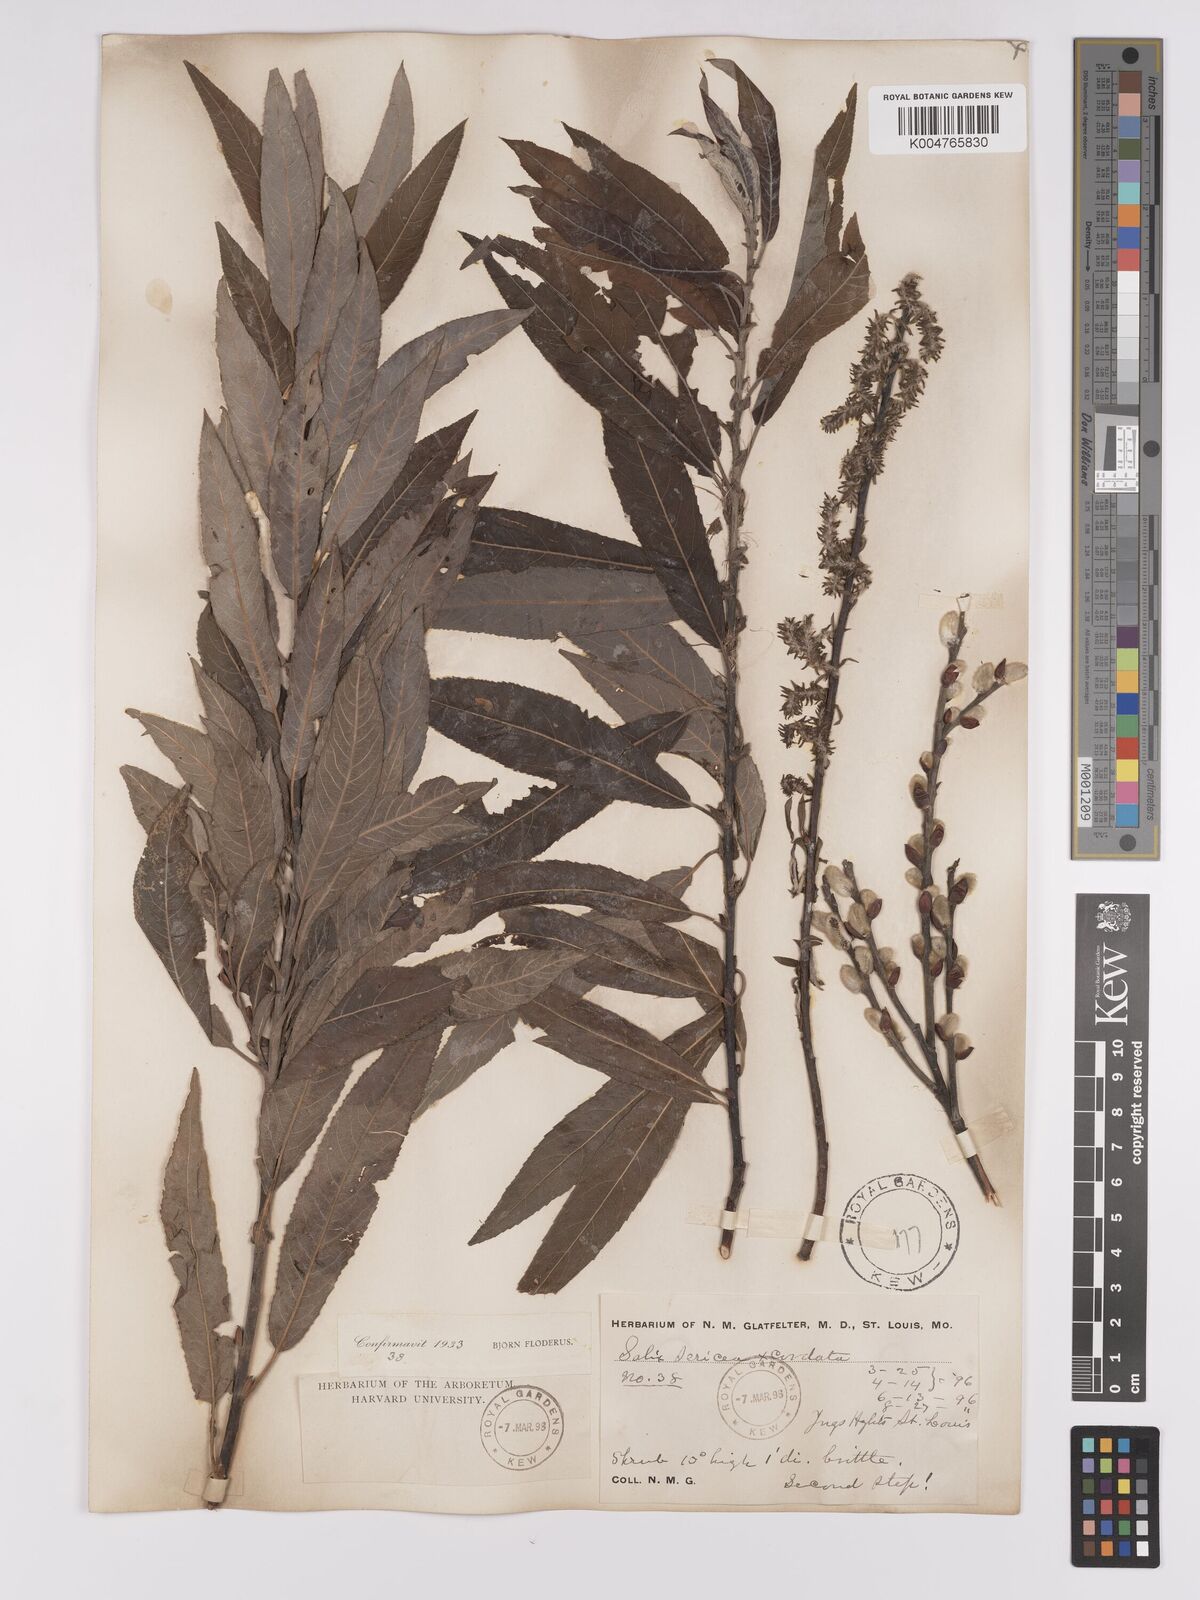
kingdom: Plantae
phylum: Tracheophyta
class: Magnoliopsida
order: Malpighiales
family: Salicaceae
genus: Salix
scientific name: Salix
